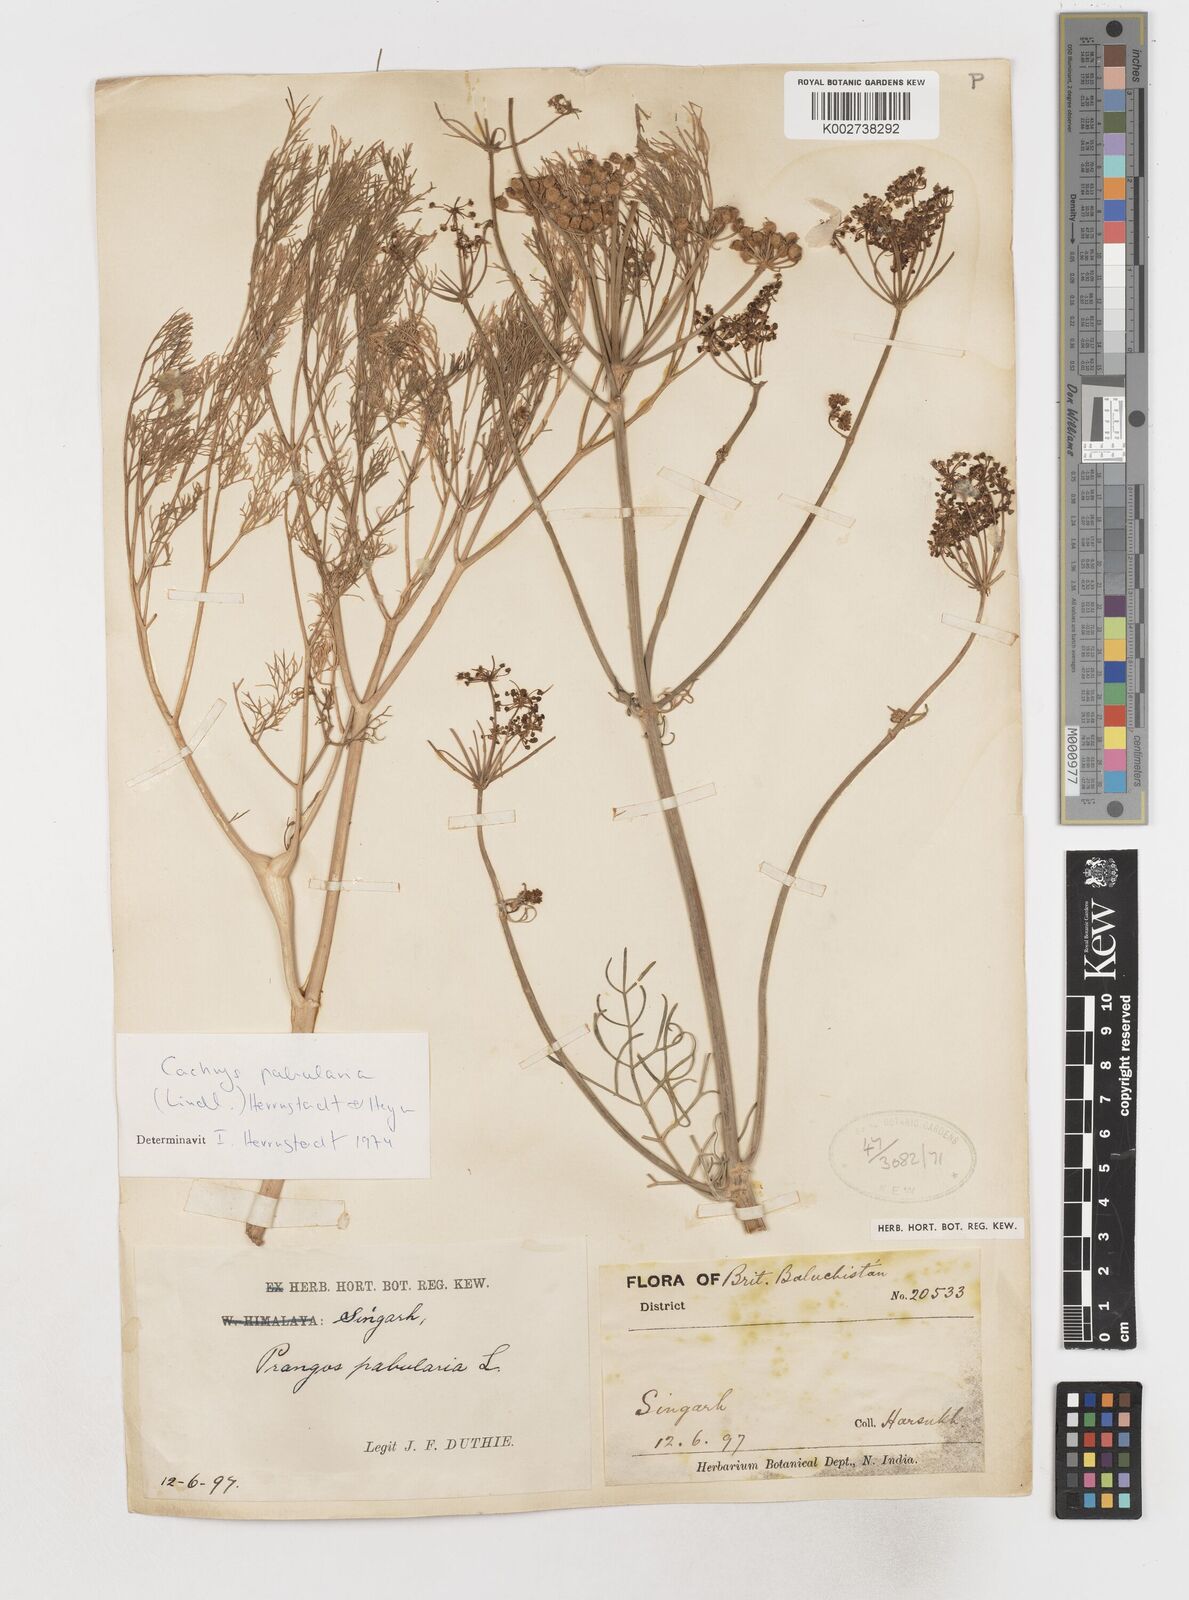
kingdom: Plantae
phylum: Tracheophyta
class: Magnoliopsida
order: Apiales
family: Apiaceae
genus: Prangos
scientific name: Prangos pabularia
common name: Yugan
